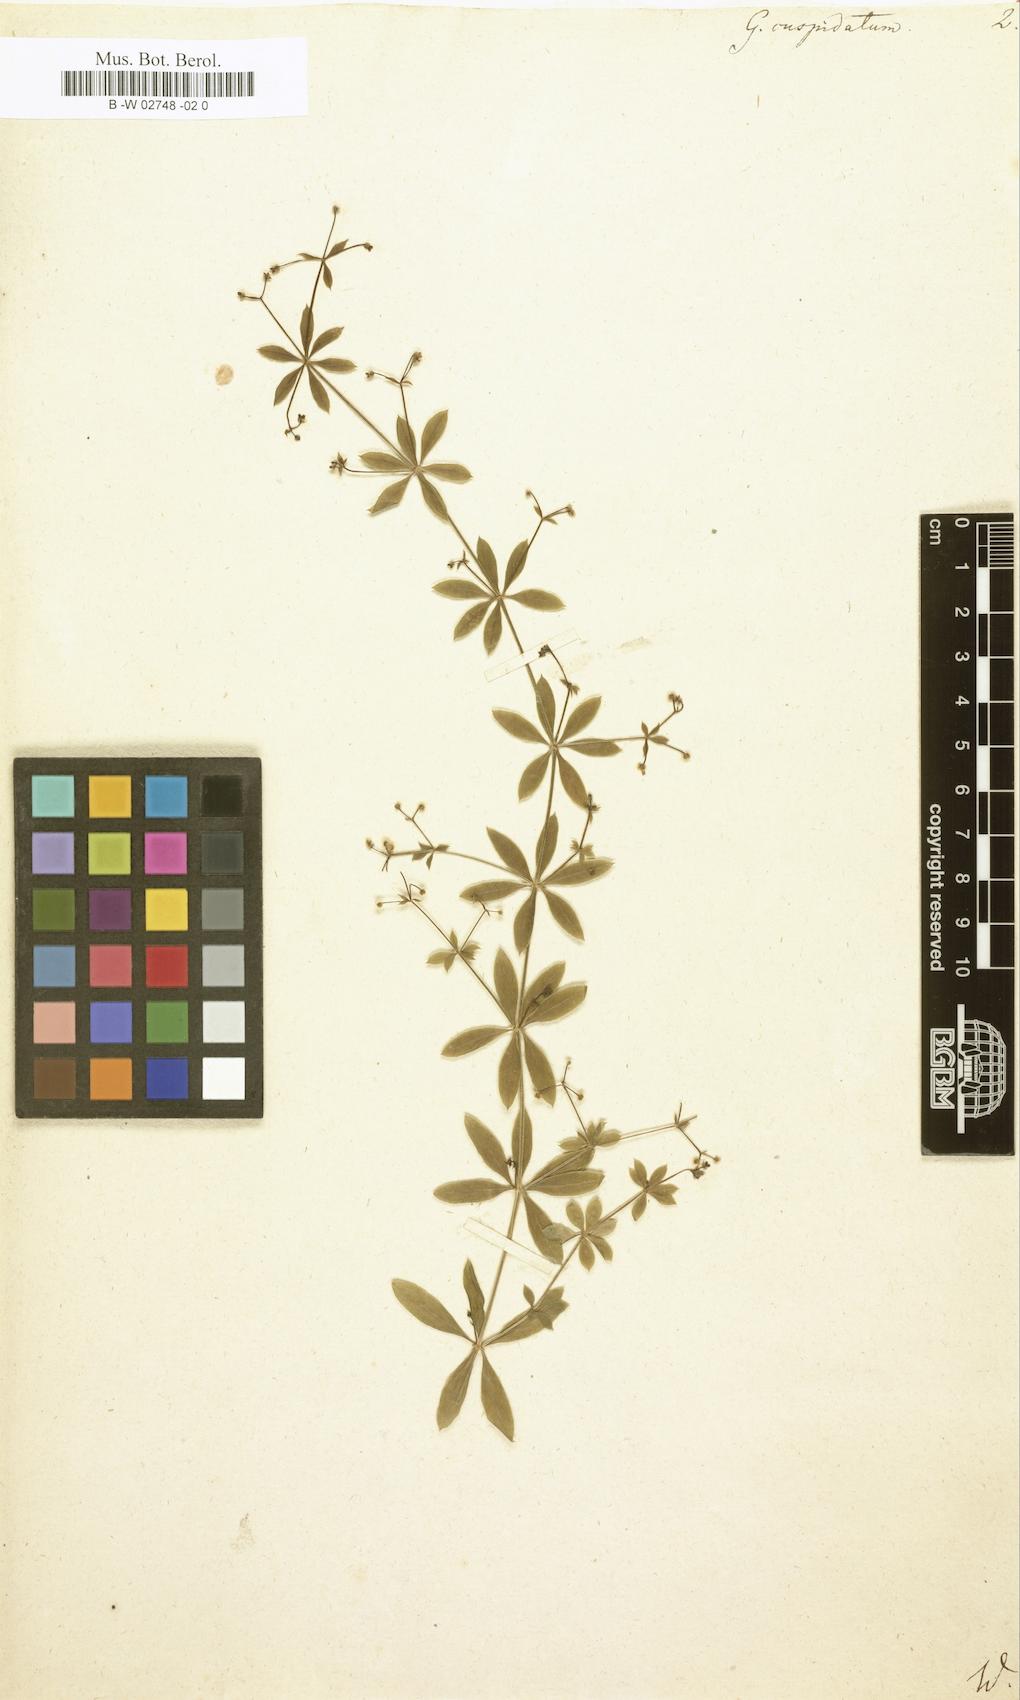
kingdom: Plantae
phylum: Tracheophyta
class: Magnoliopsida
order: Gentianales
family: Rubiaceae
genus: Galium
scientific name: Galium triflorum
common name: Fragrant bedstraw
